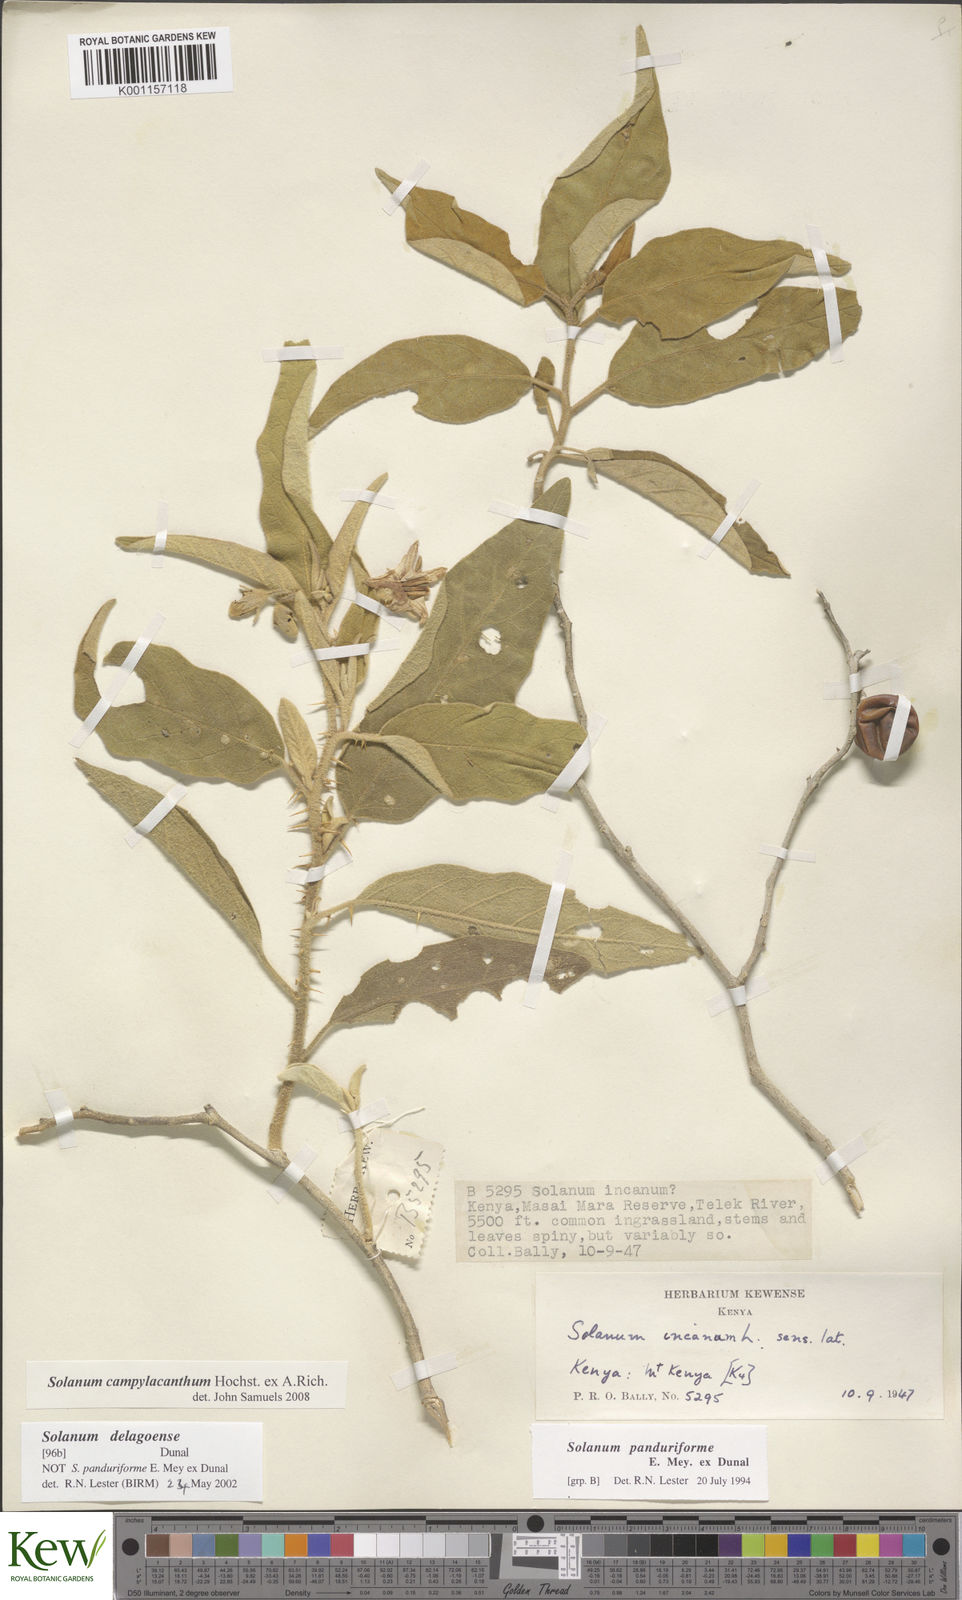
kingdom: Plantae
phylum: Tracheophyta
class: Magnoliopsida
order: Solanales
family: Solanaceae
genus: Solanum
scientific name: Solanum campylacanthum
